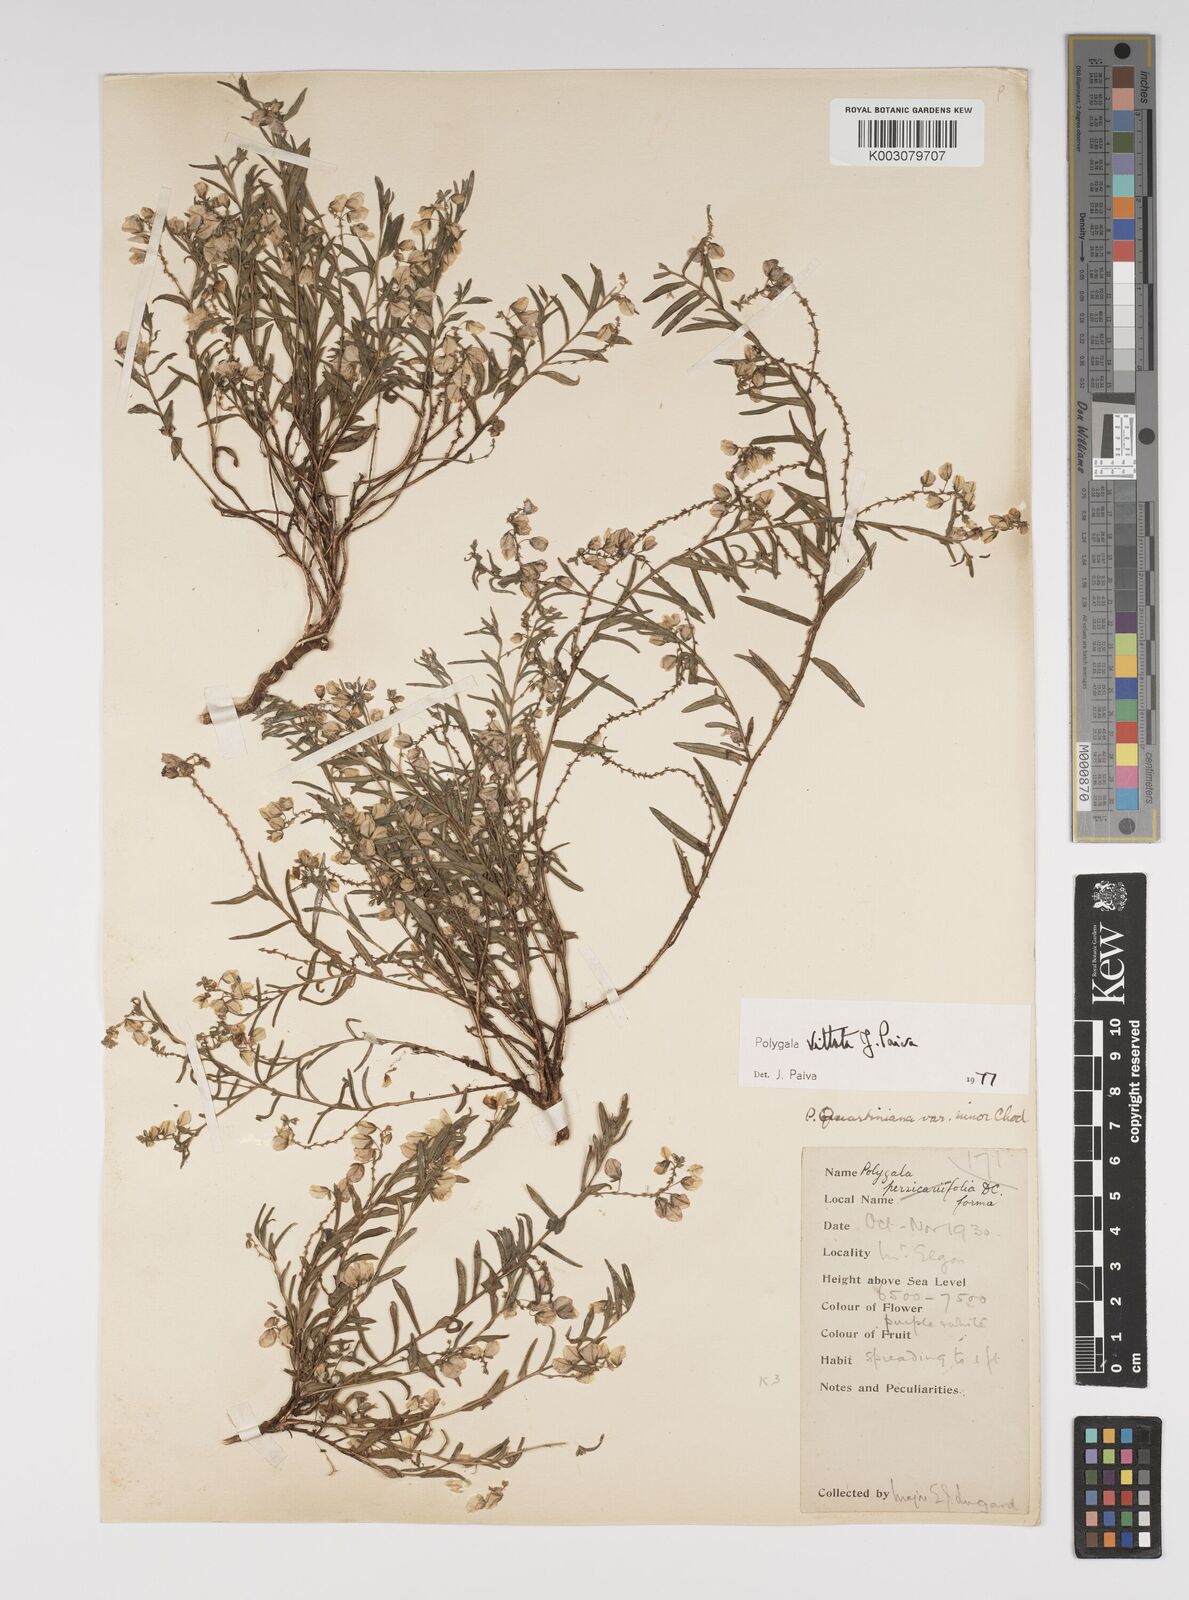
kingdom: Plantae
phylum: Tracheophyta
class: Magnoliopsida
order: Fabales
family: Polygalaceae
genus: Polygala
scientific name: Polygala vittata
